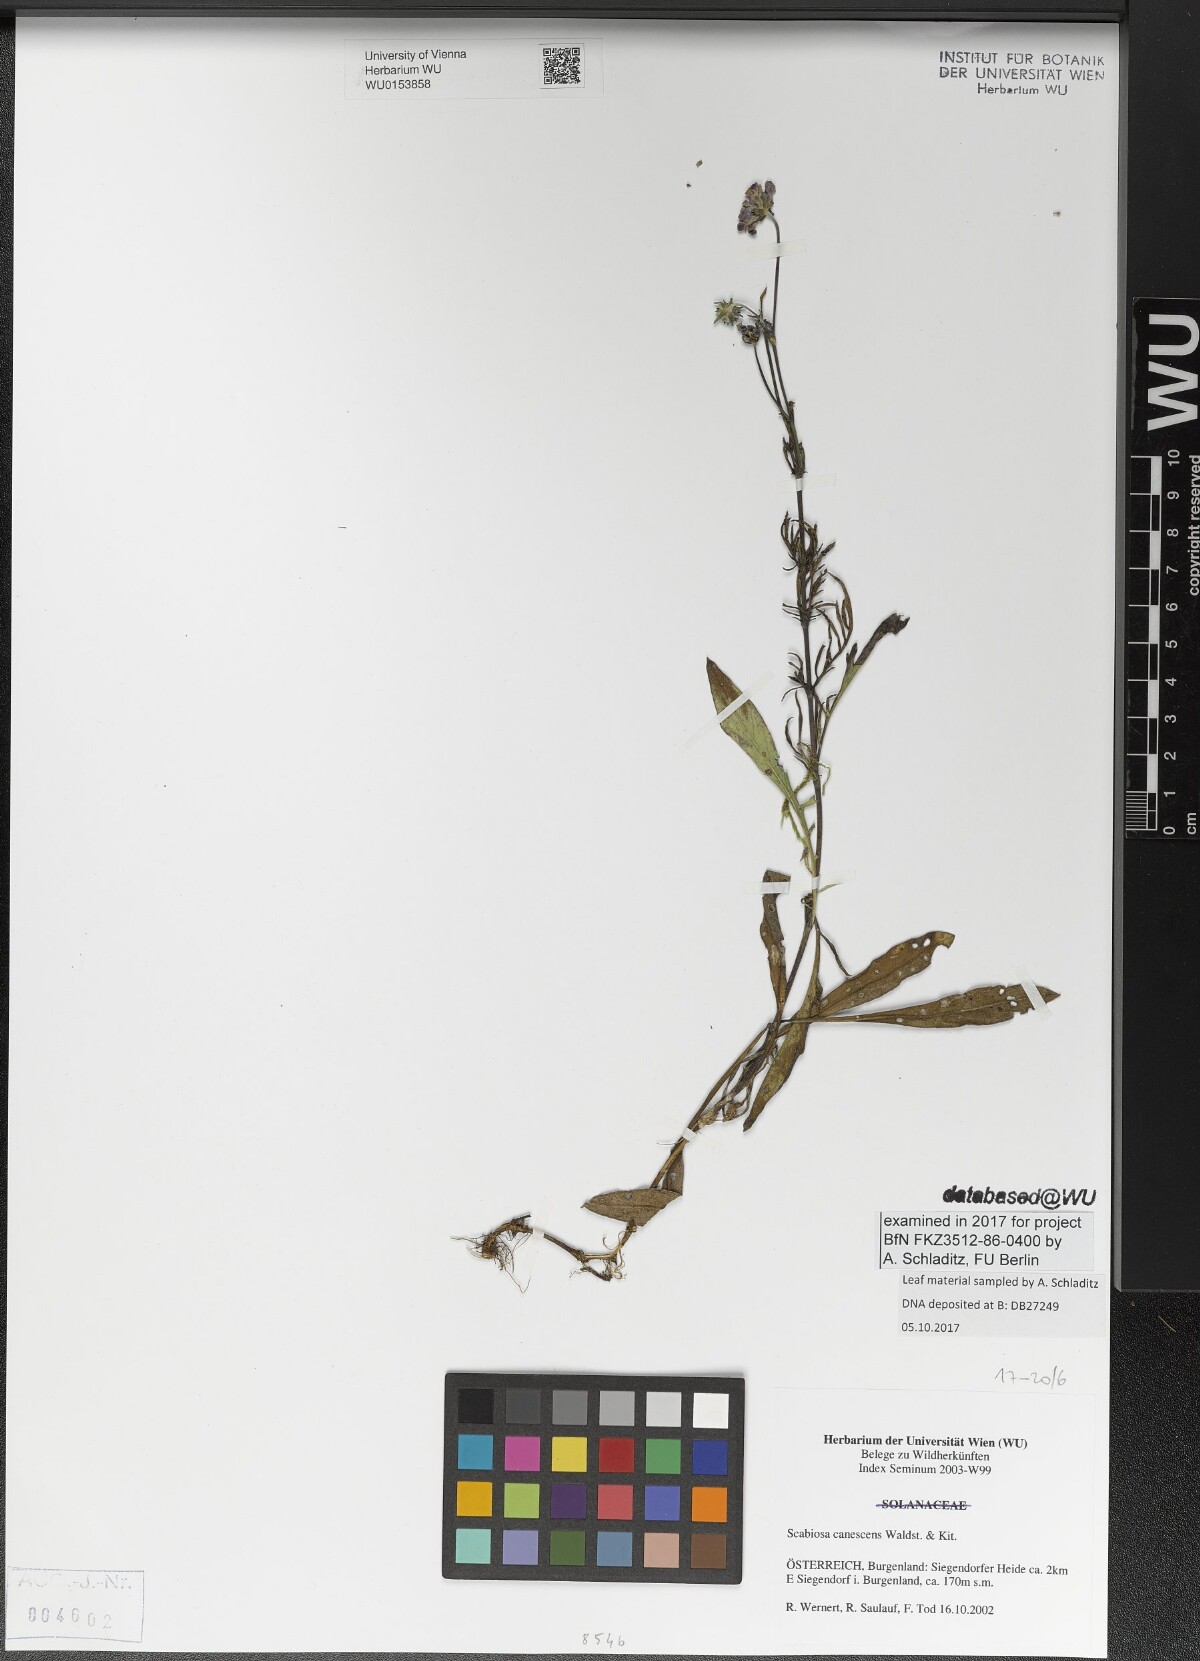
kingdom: Plantae
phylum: Tracheophyta
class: Magnoliopsida
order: Dipsacales
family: Caprifoliaceae
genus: Scabiosa
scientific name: Scabiosa canescens
